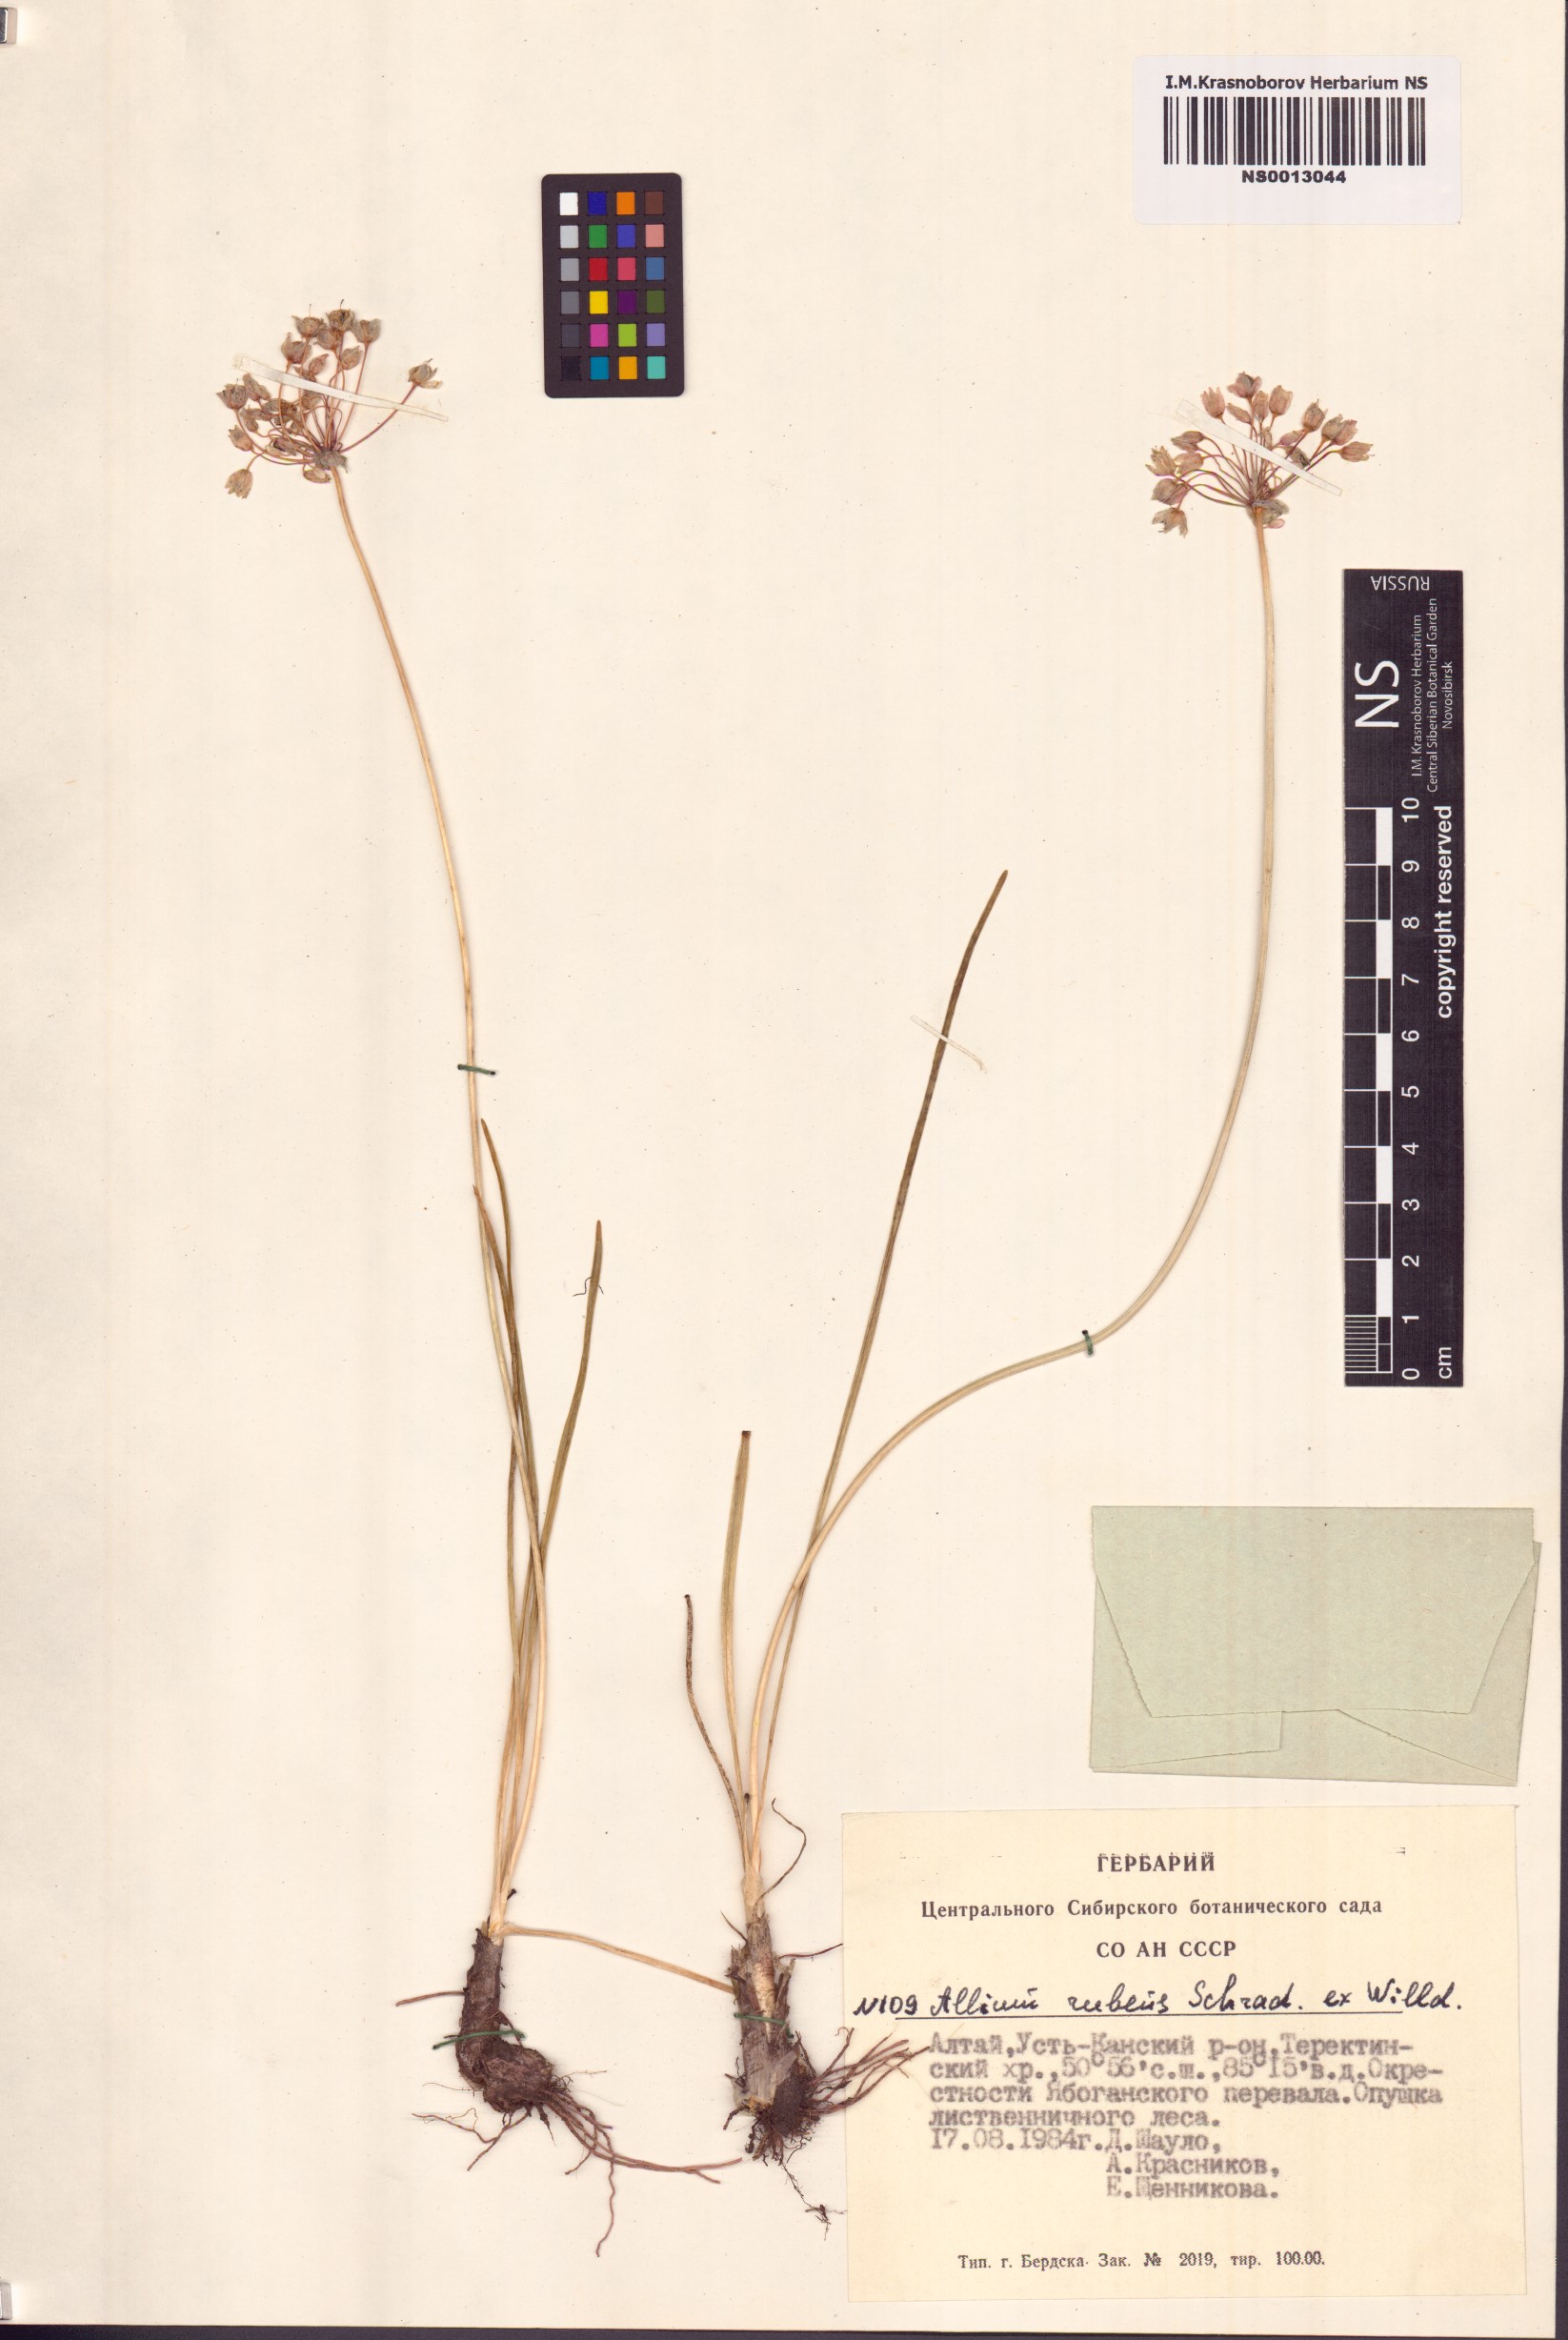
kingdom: Plantae
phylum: Tracheophyta
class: Liliopsida
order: Asparagales
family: Amaryllidaceae
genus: Allium
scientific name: Allium rubens
